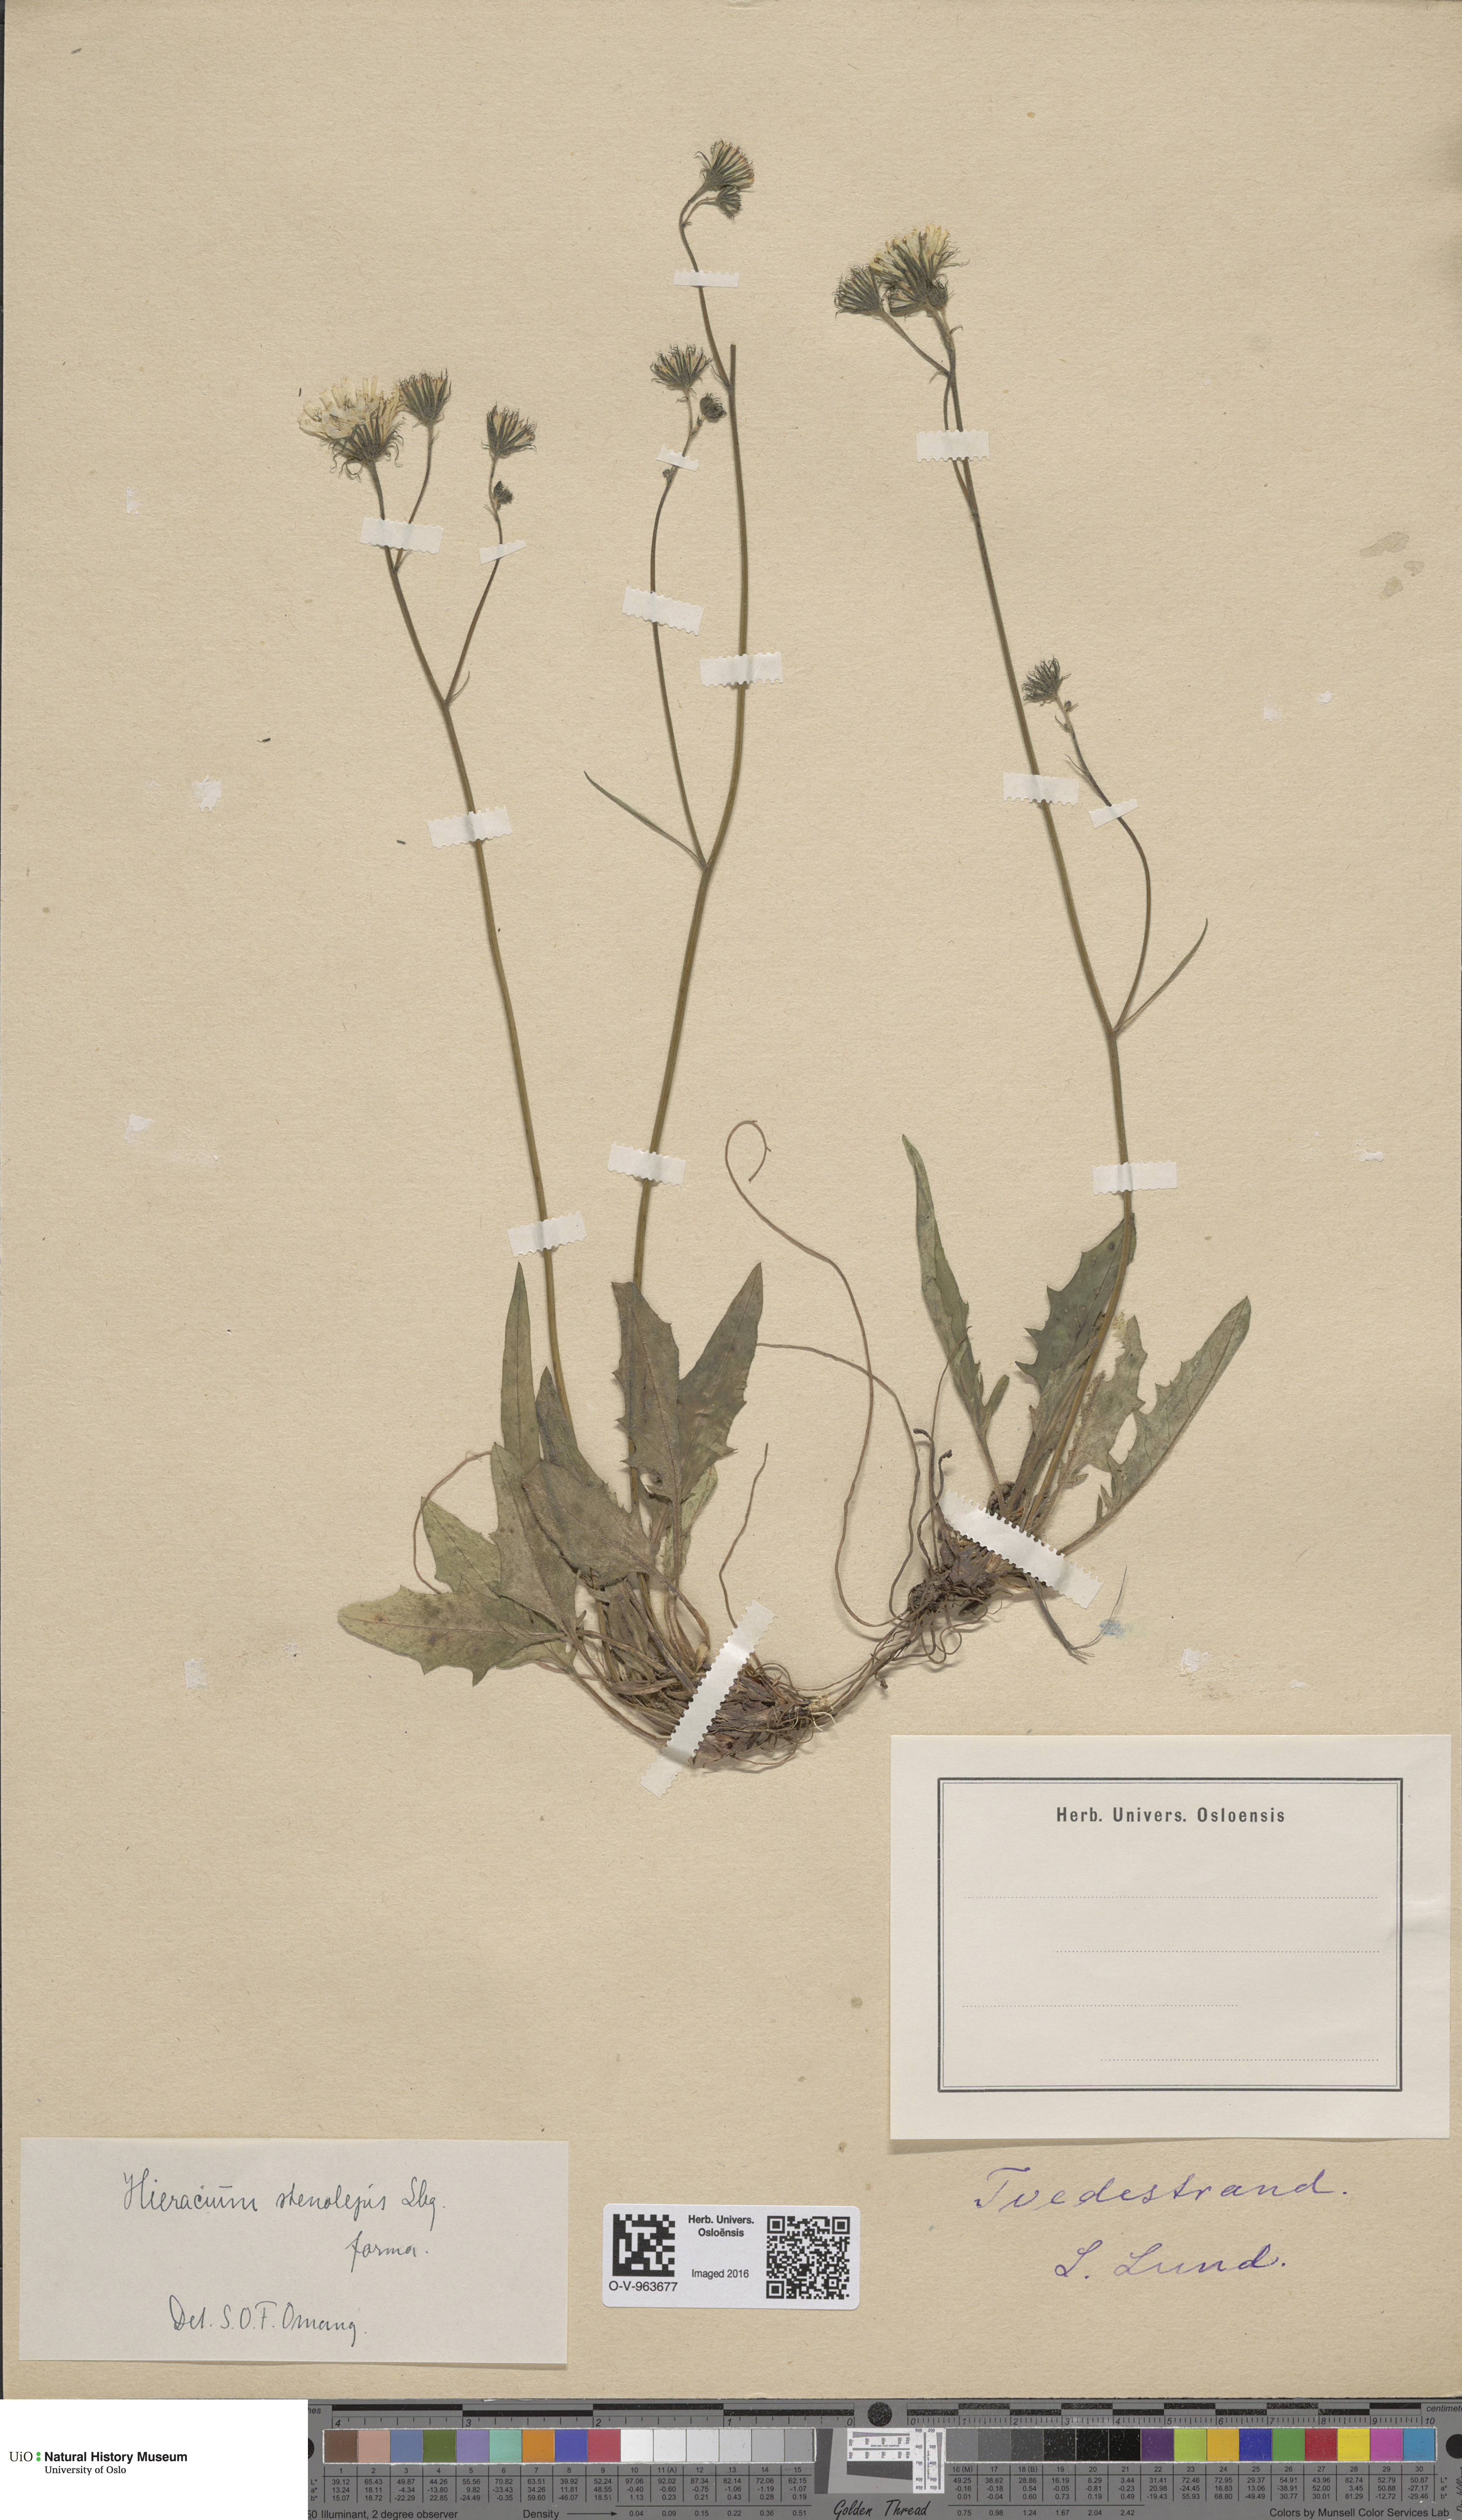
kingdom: Plantae
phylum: Tracheophyta
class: Magnoliopsida
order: Asterales
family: Asteraceae
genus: Hieracium
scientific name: Hieracium bifidum
